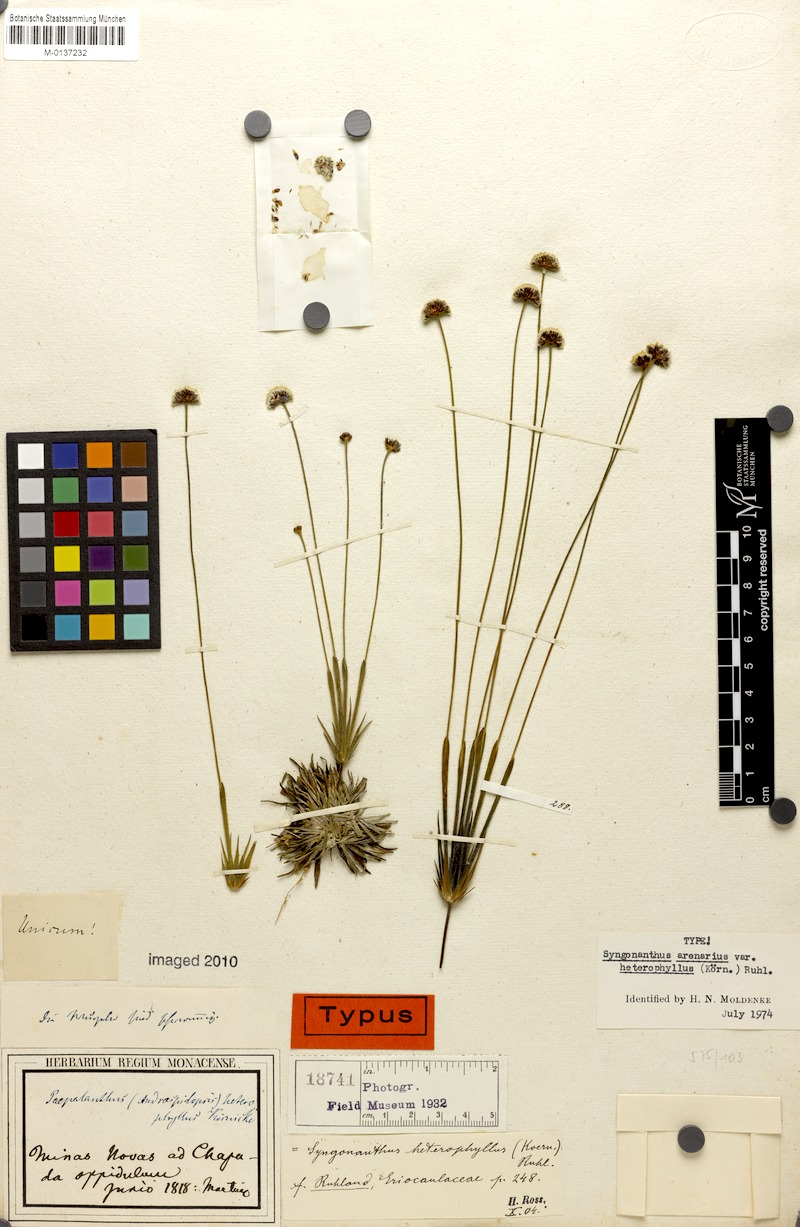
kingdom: Plantae
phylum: Tracheophyta
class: Liliopsida
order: Poales
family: Eriocaulaceae
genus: Syngonanthus
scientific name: Syngonanthus arenarius
